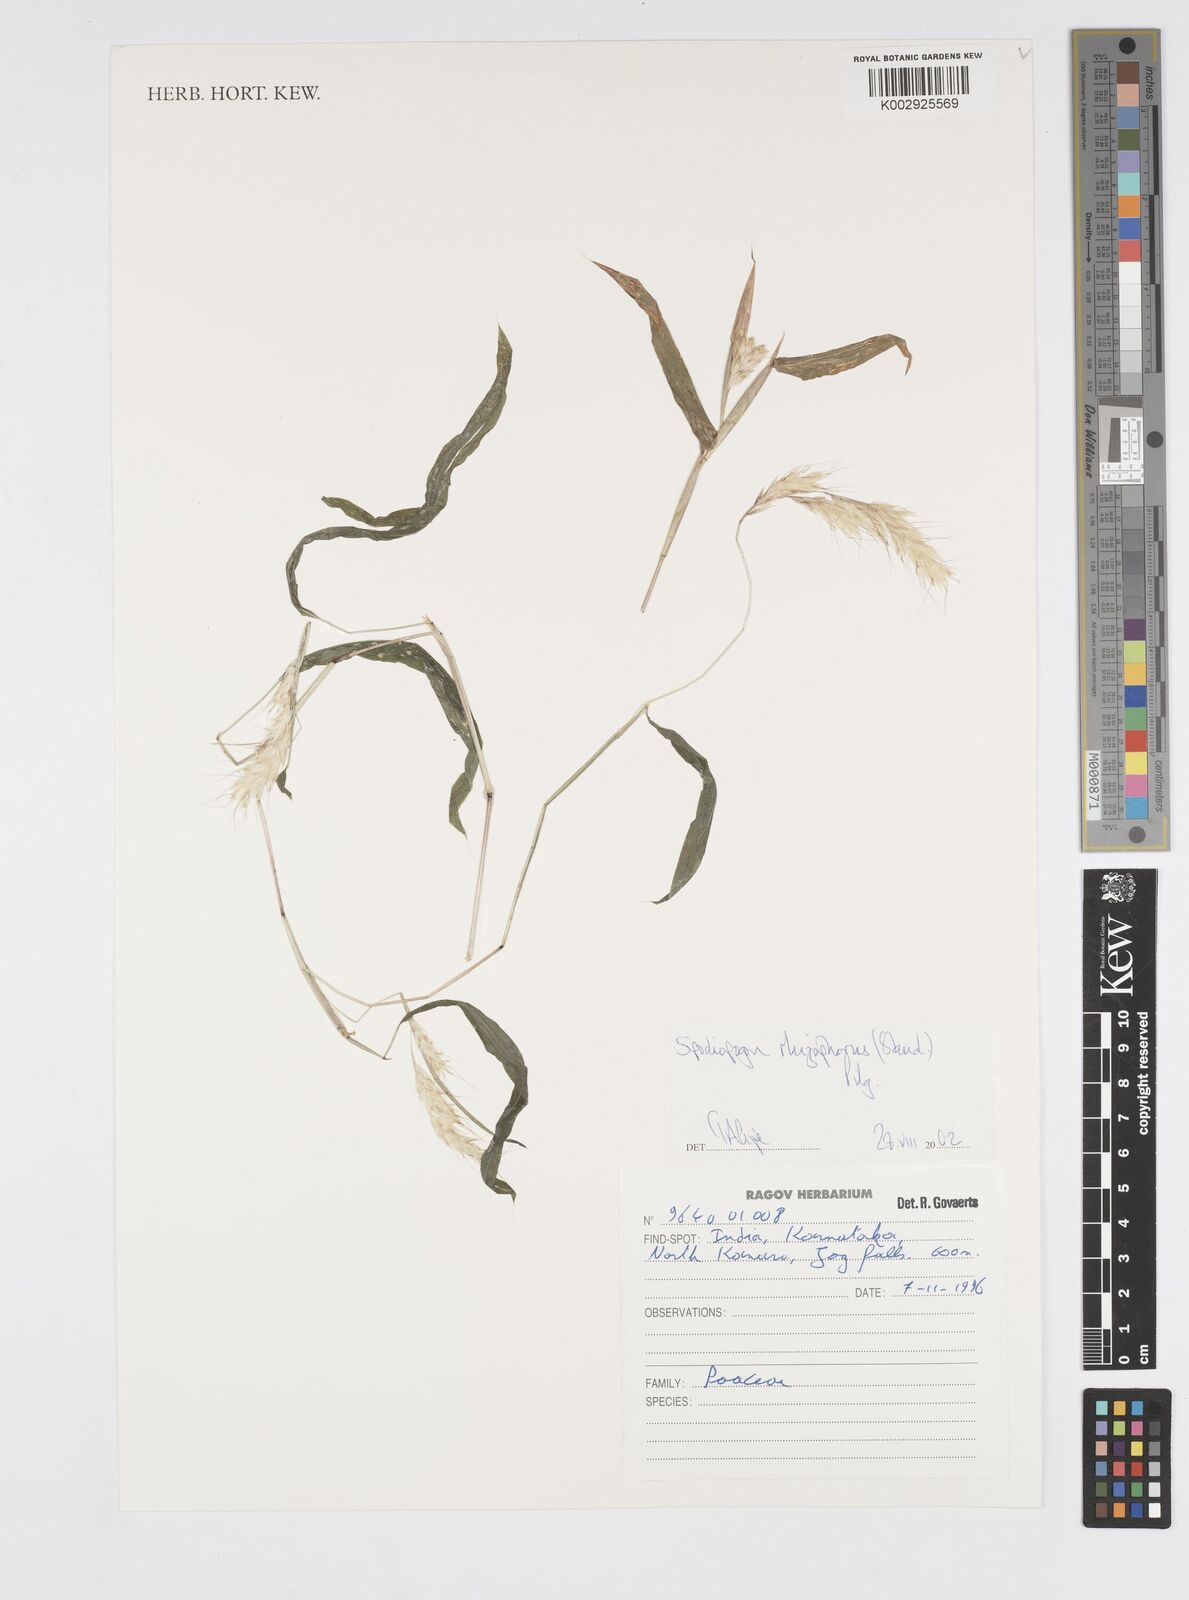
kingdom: Plantae
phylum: Tracheophyta
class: Liliopsida
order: Poales
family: Poaceae
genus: Spodiopogon
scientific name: Spodiopogon rhizophorus
